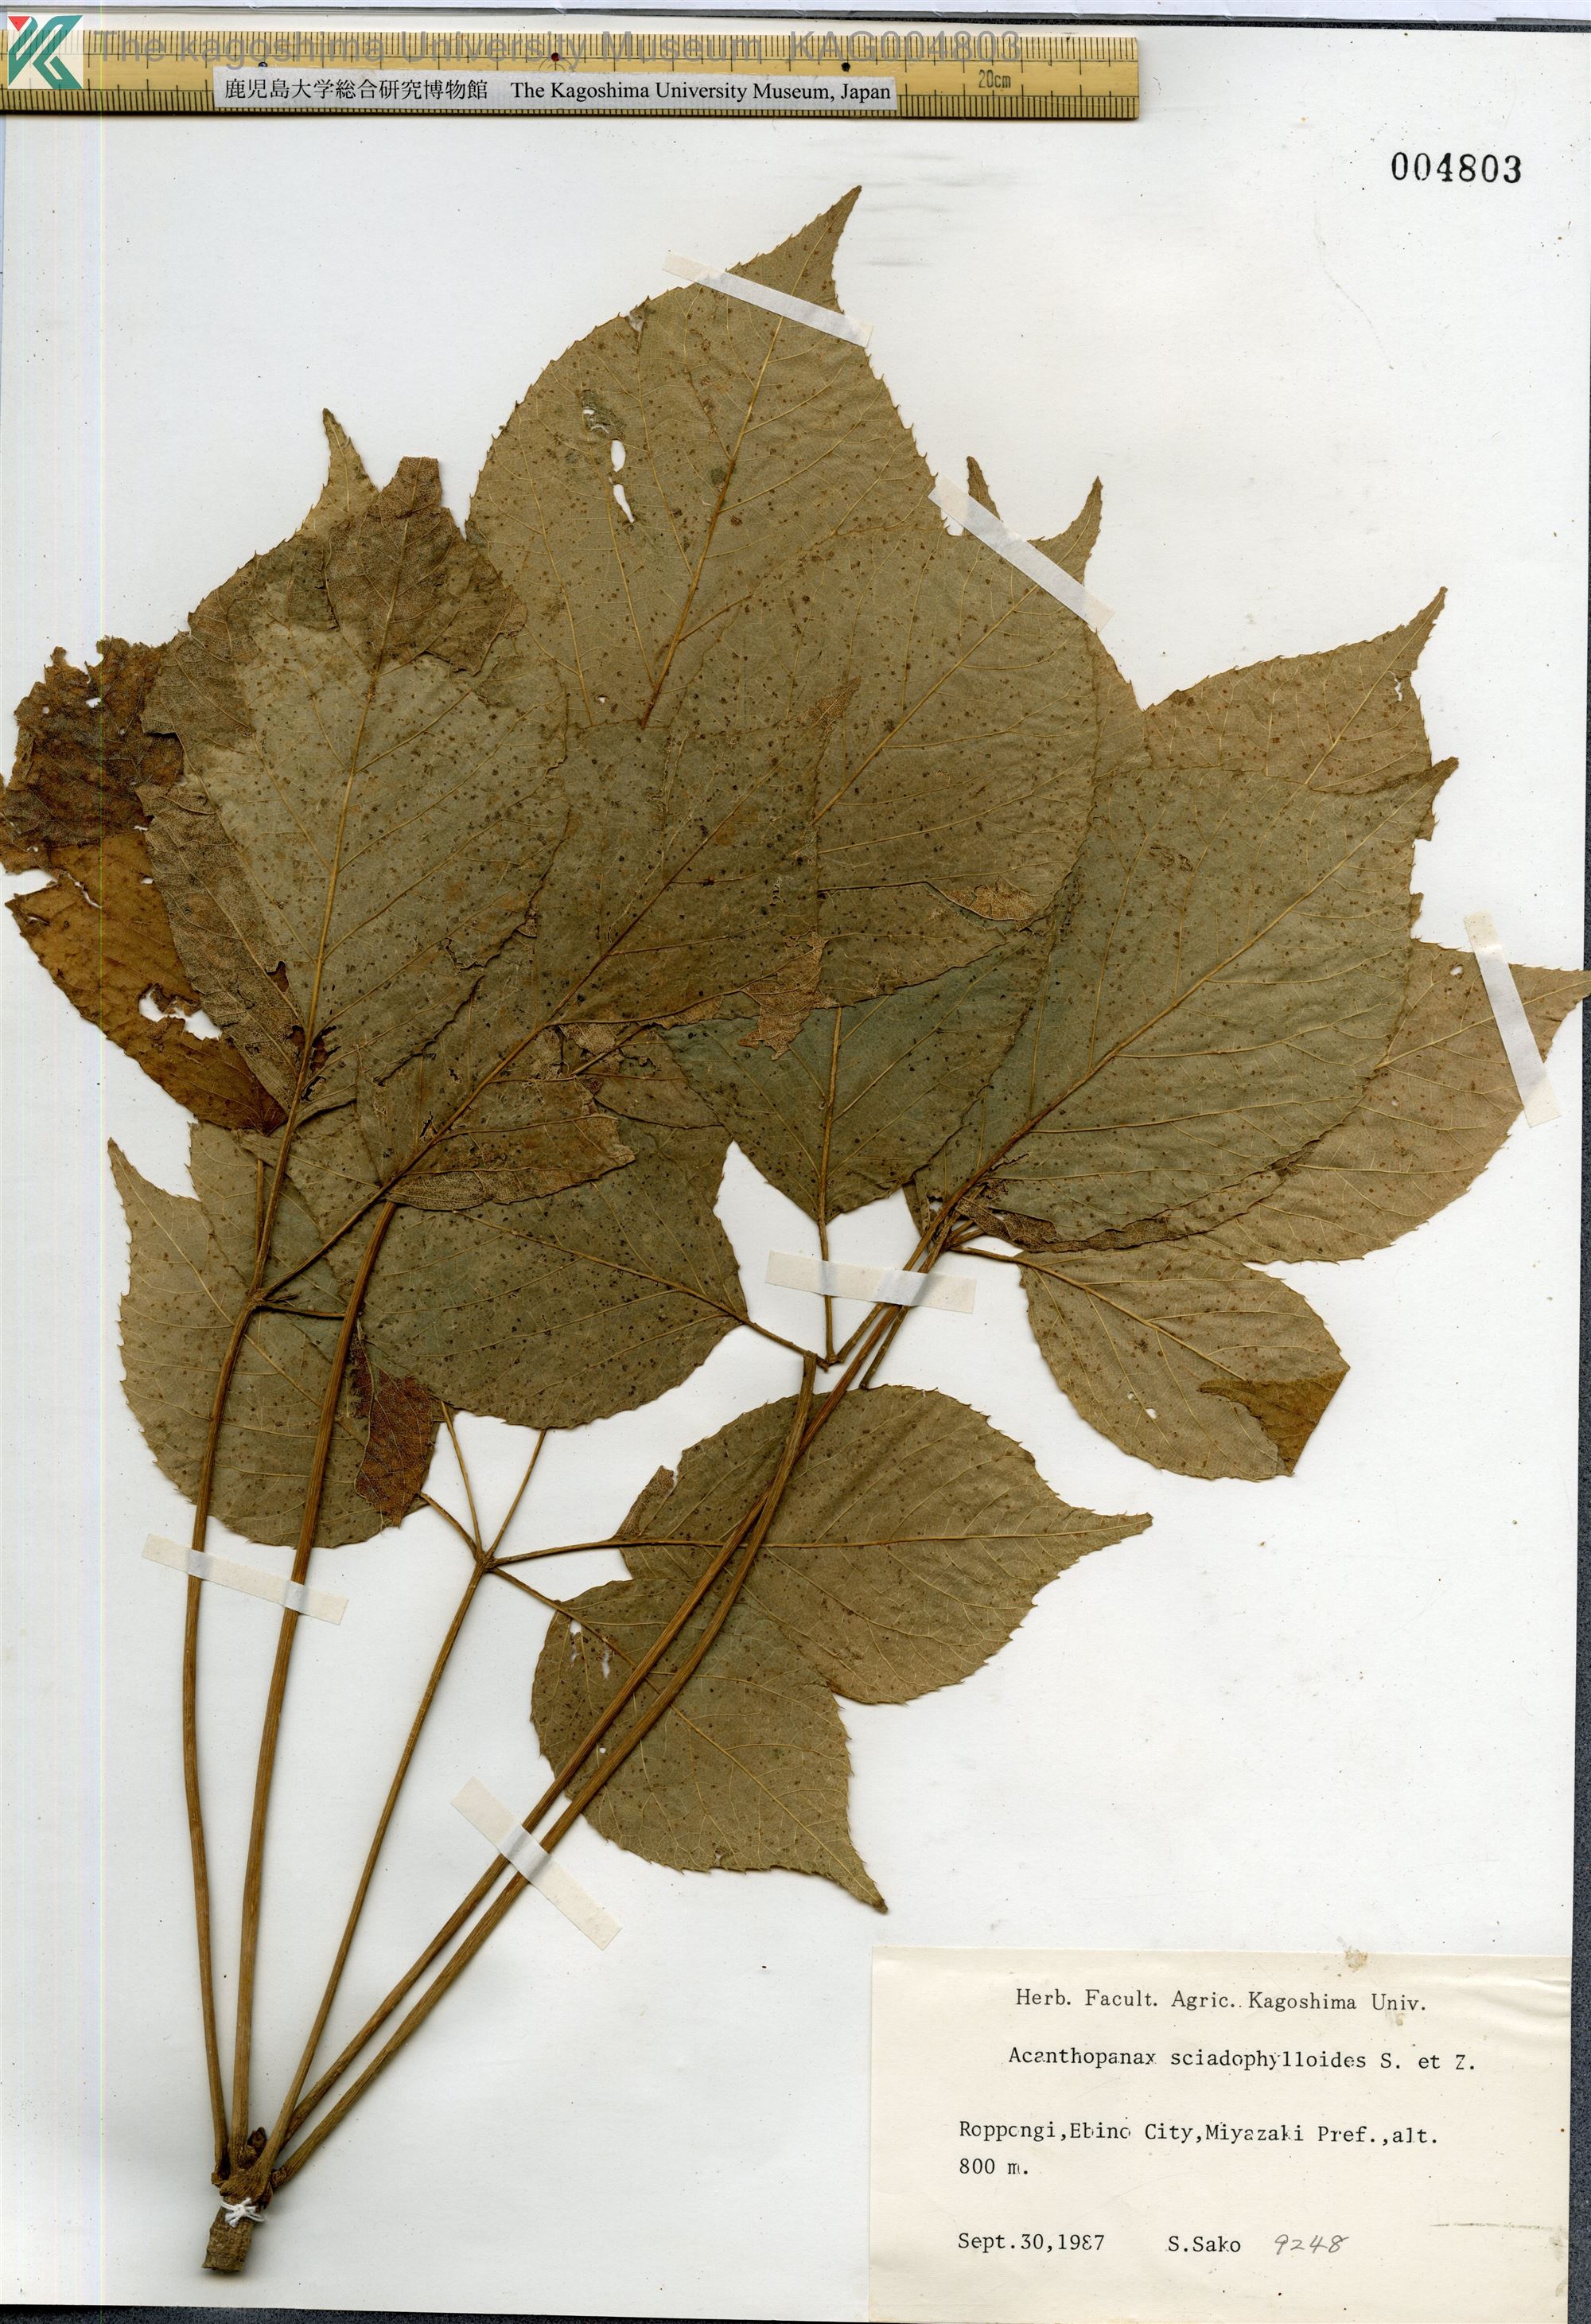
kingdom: Plantae
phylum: Tracheophyta
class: Magnoliopsida
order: Apiales
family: Araliaceae
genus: Chengiopanax
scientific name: Chengiopanax sciadophylloides
